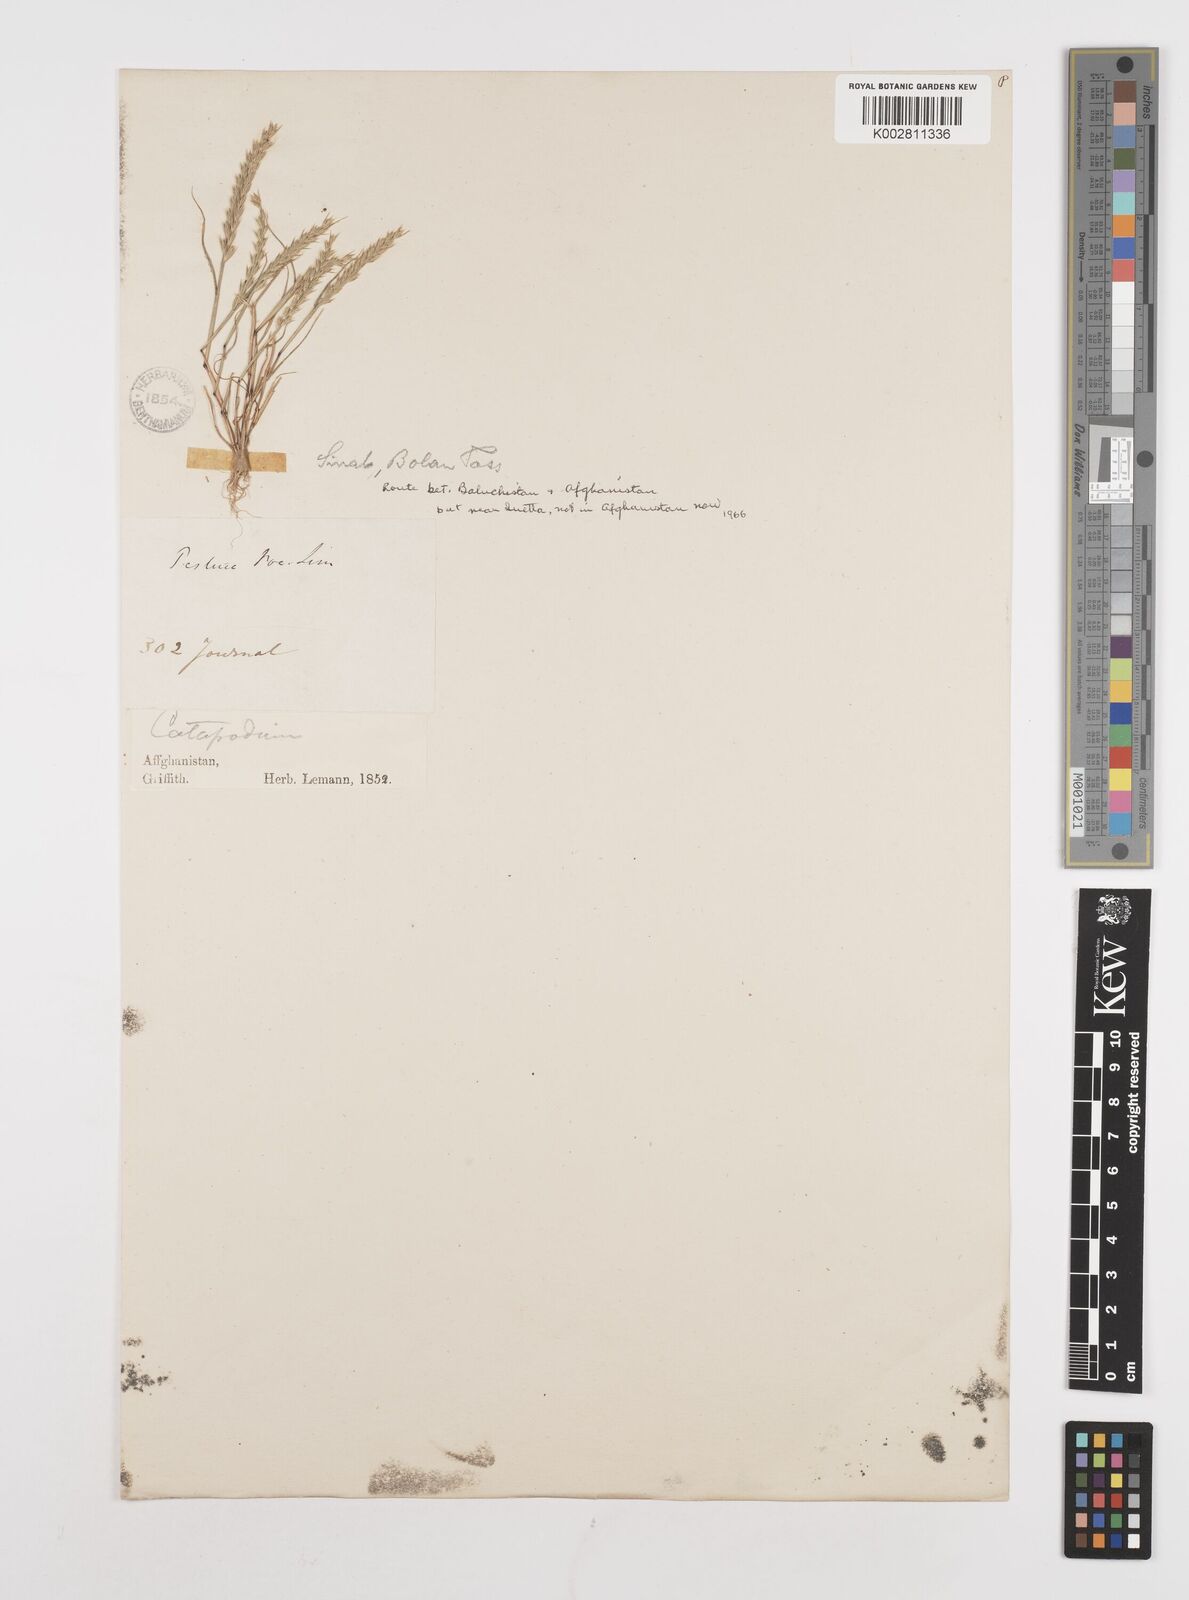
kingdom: Plantae
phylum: Tracheophyta
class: Liliopsida
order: Poales
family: Poaceae
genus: Festuca
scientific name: Festuca orientalis
